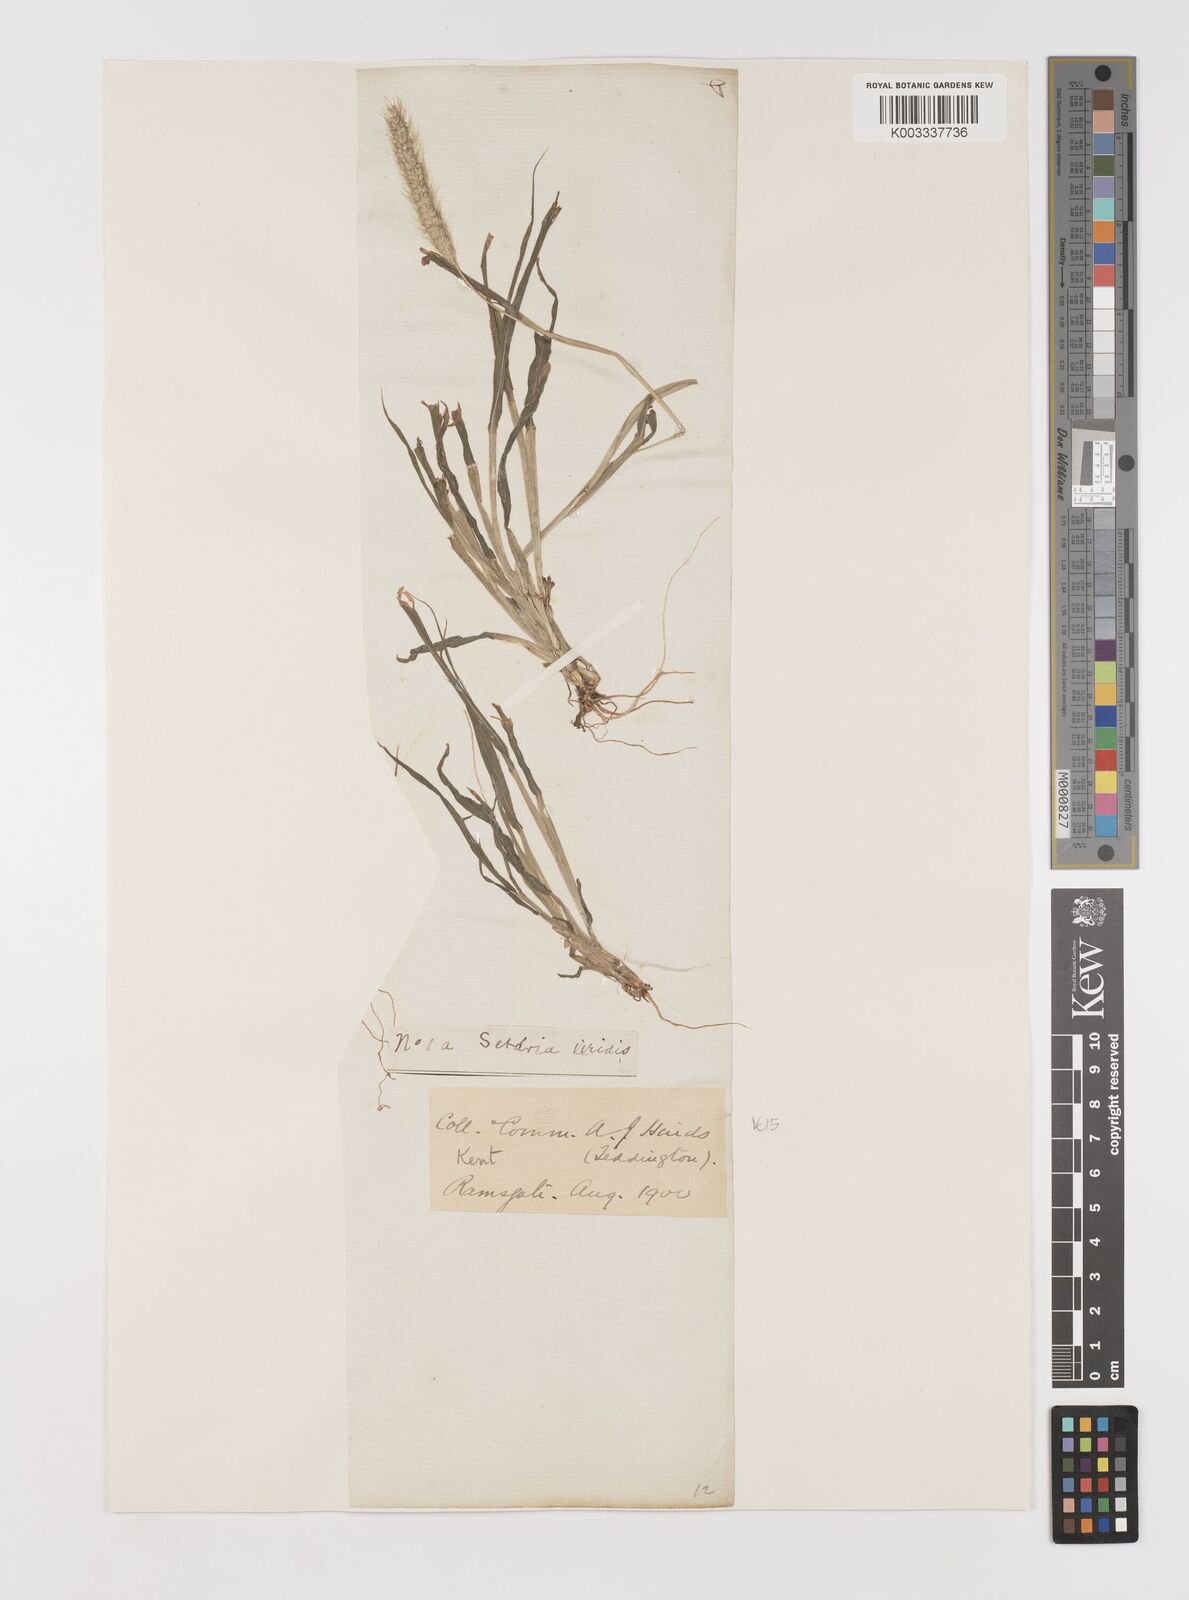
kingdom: Plantae
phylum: Tracheophyta
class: Liliopsida
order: Poales
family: Poaceae
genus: Setaria
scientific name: Setaria viridis
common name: Green bristlegrass
